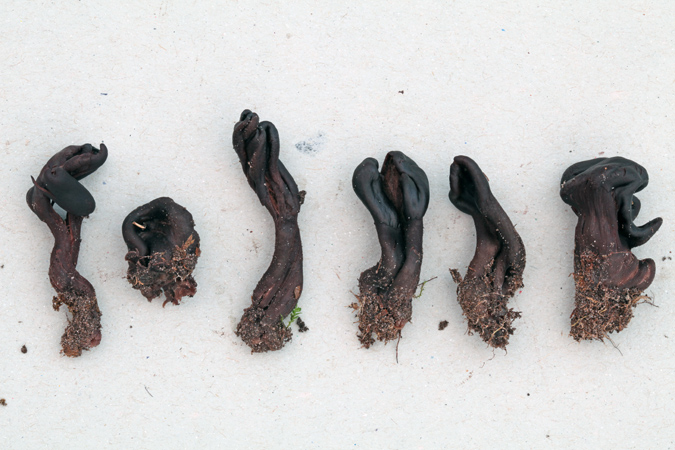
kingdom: Fungi
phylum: Ascomycota
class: Geoglossomycetes
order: Geoglossales
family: Geoglossaceae
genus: Geoglossum
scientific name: Geoglossum atropurpureum
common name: purpursort farvetunge
